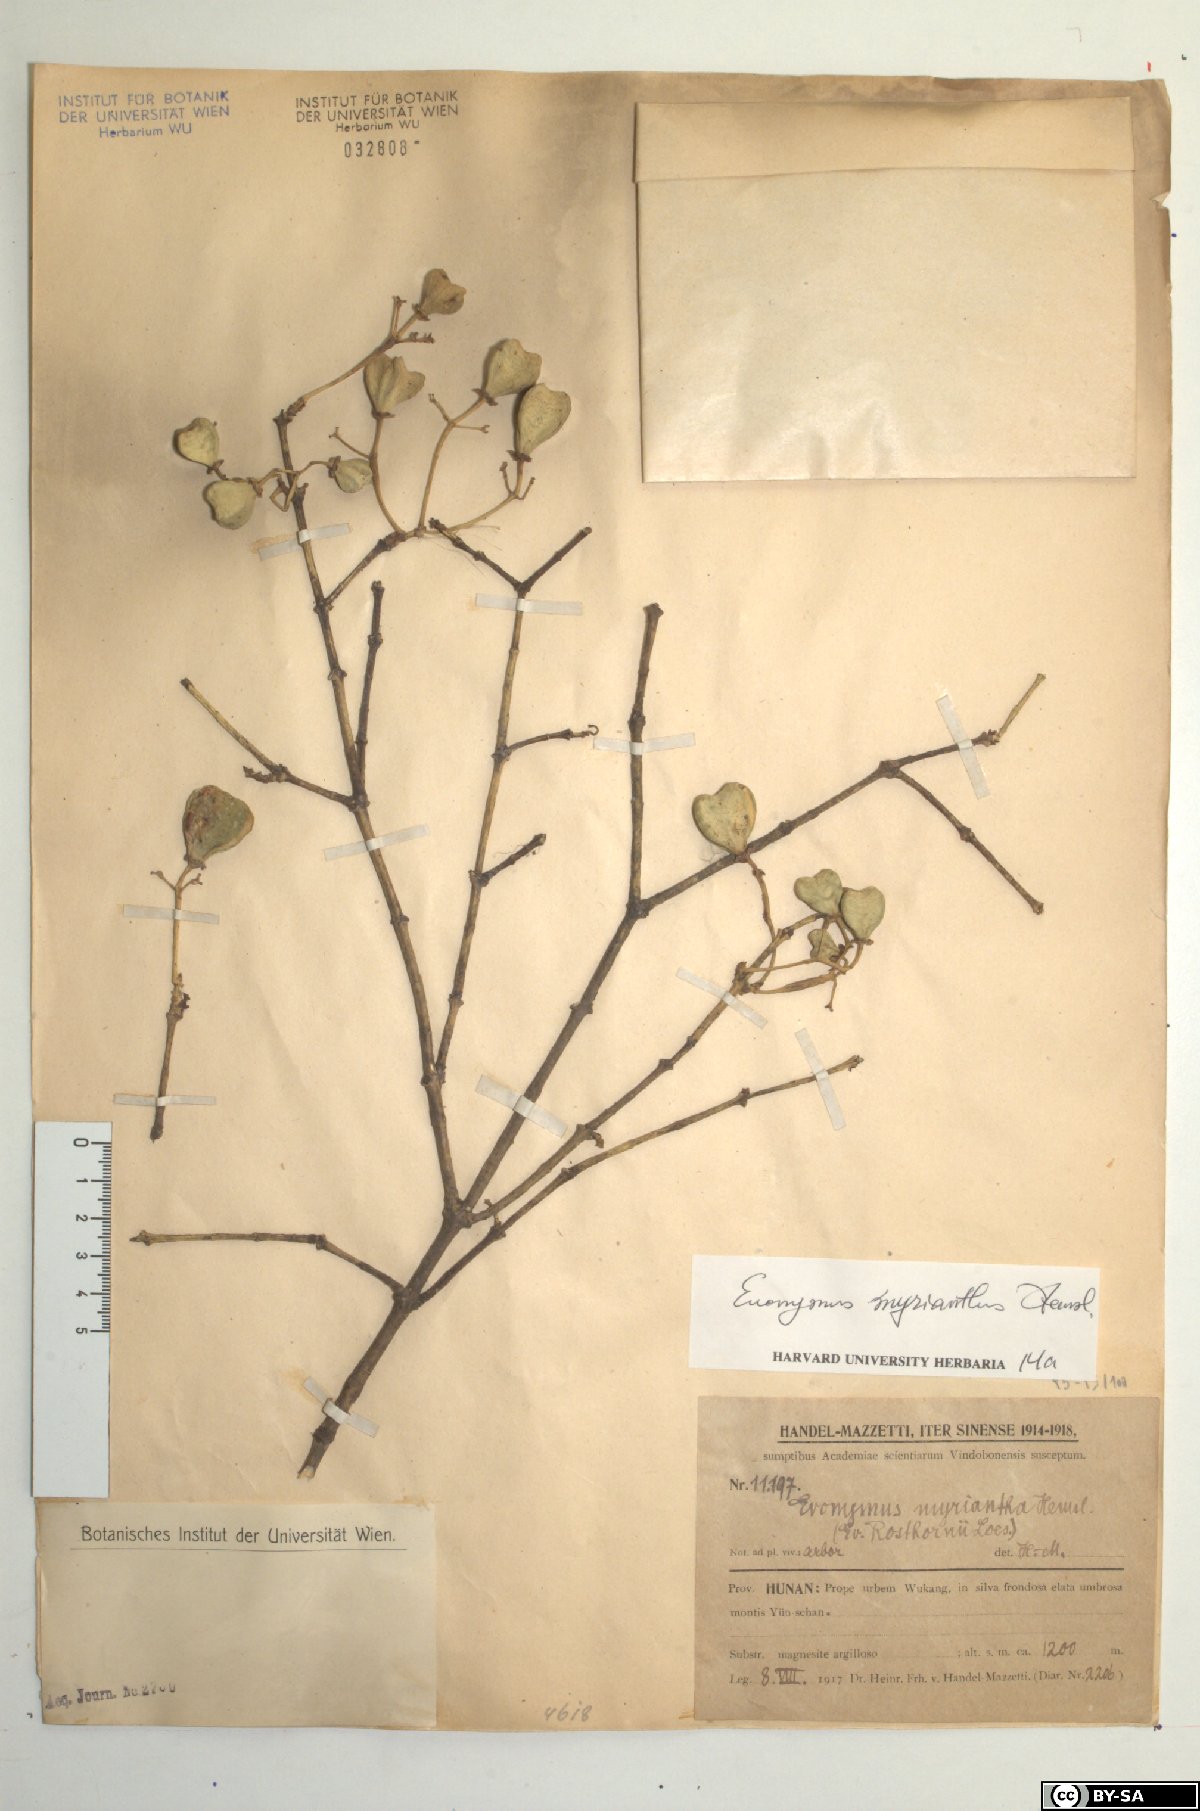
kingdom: Plantae
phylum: Tracheophyta
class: Magnoliopsida
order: Celastrales
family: Celastraceae
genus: Euonymus
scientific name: Euonymus myrianthus
